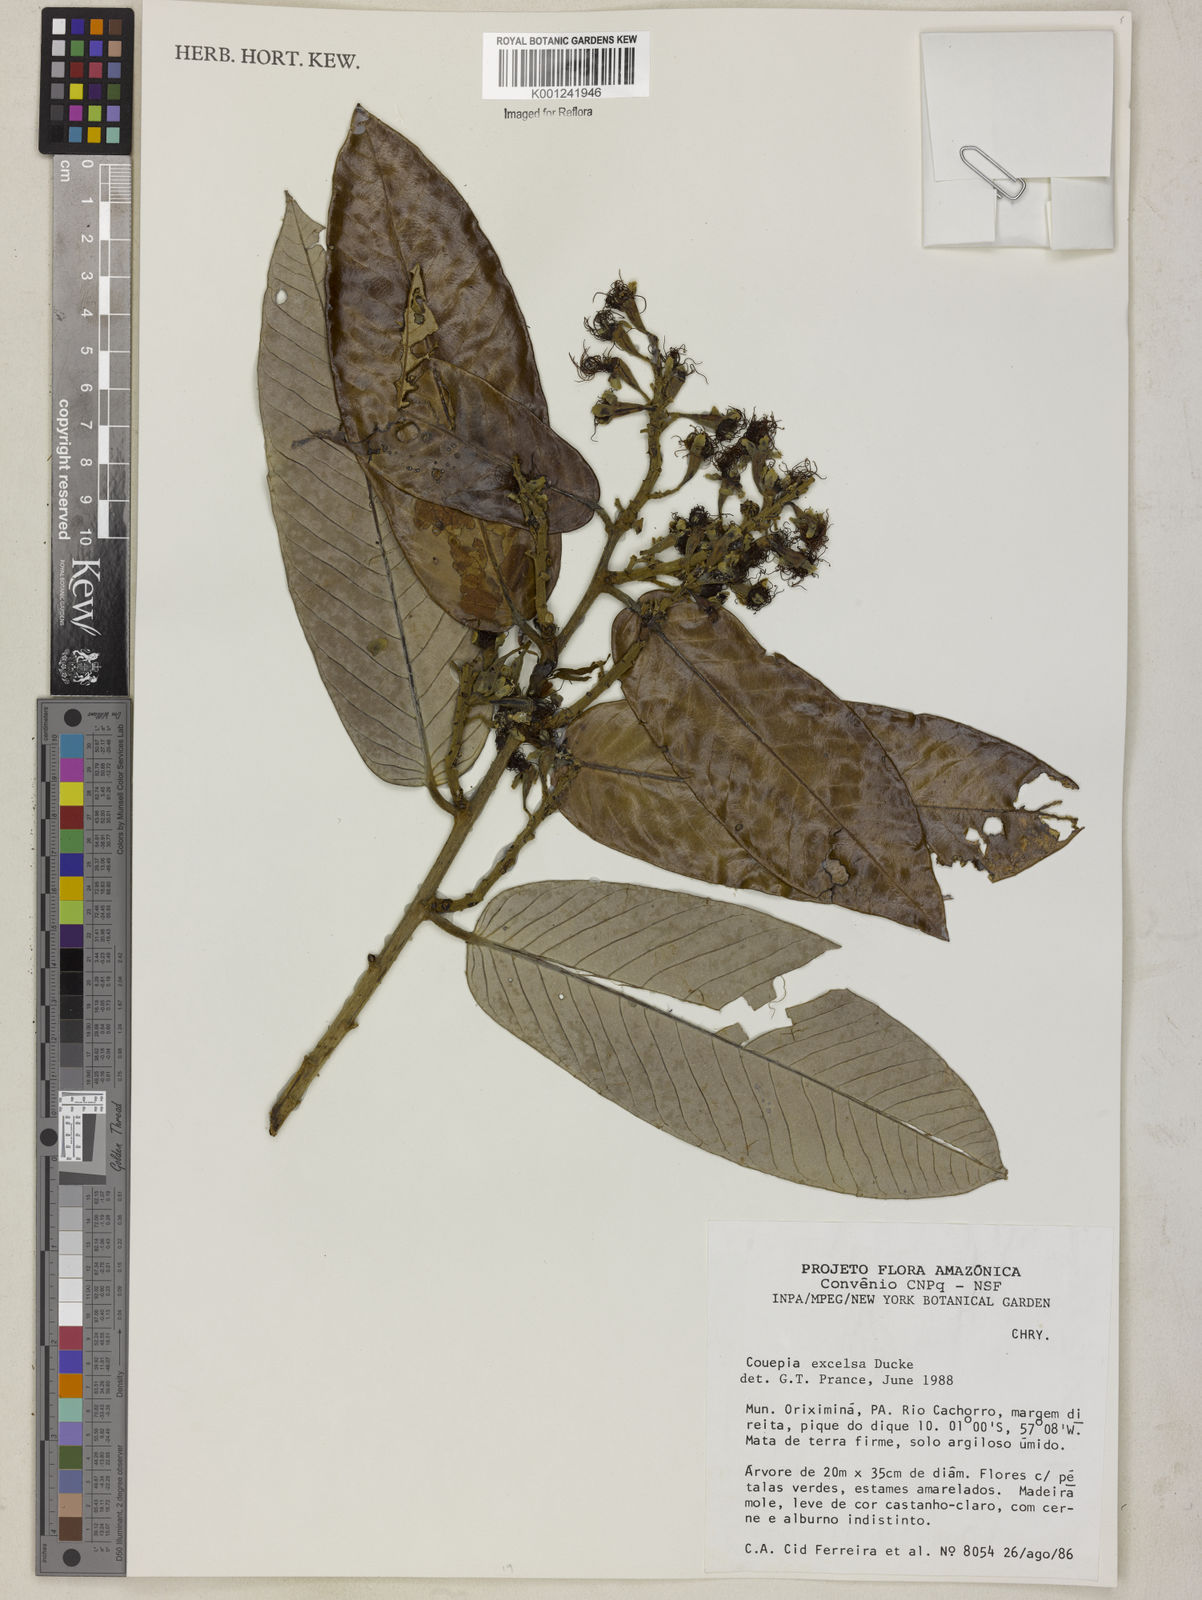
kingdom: Plantae
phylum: Tracheophyta
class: Magnoliopsida
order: Malpighiales
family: Chrysobalanaceae
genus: Couepia
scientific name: Couepia excelsa
